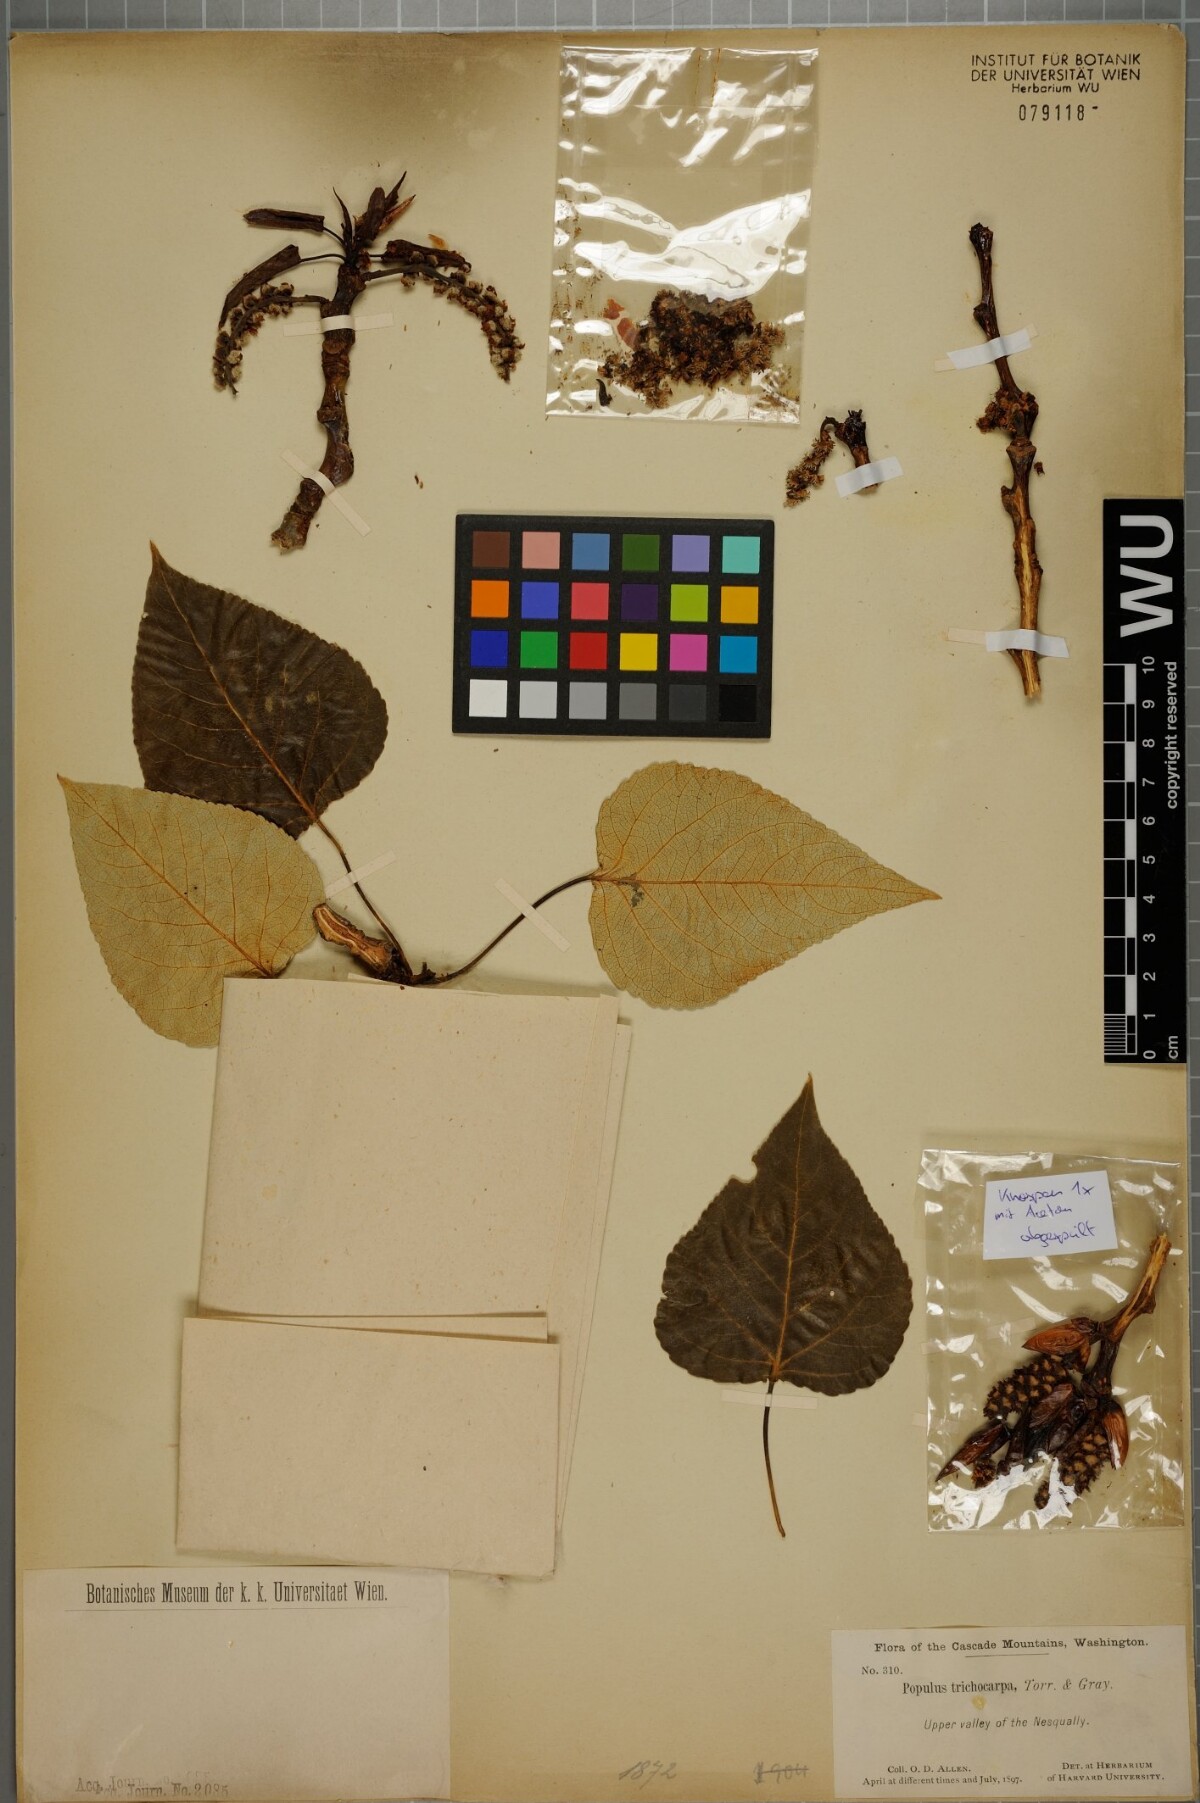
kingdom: Plantae
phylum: Tracheophyta
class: Magnoliopsida
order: Malpighiales
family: Salicaceae
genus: Populus
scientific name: Populus trichocarpa
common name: Black cottonwood
